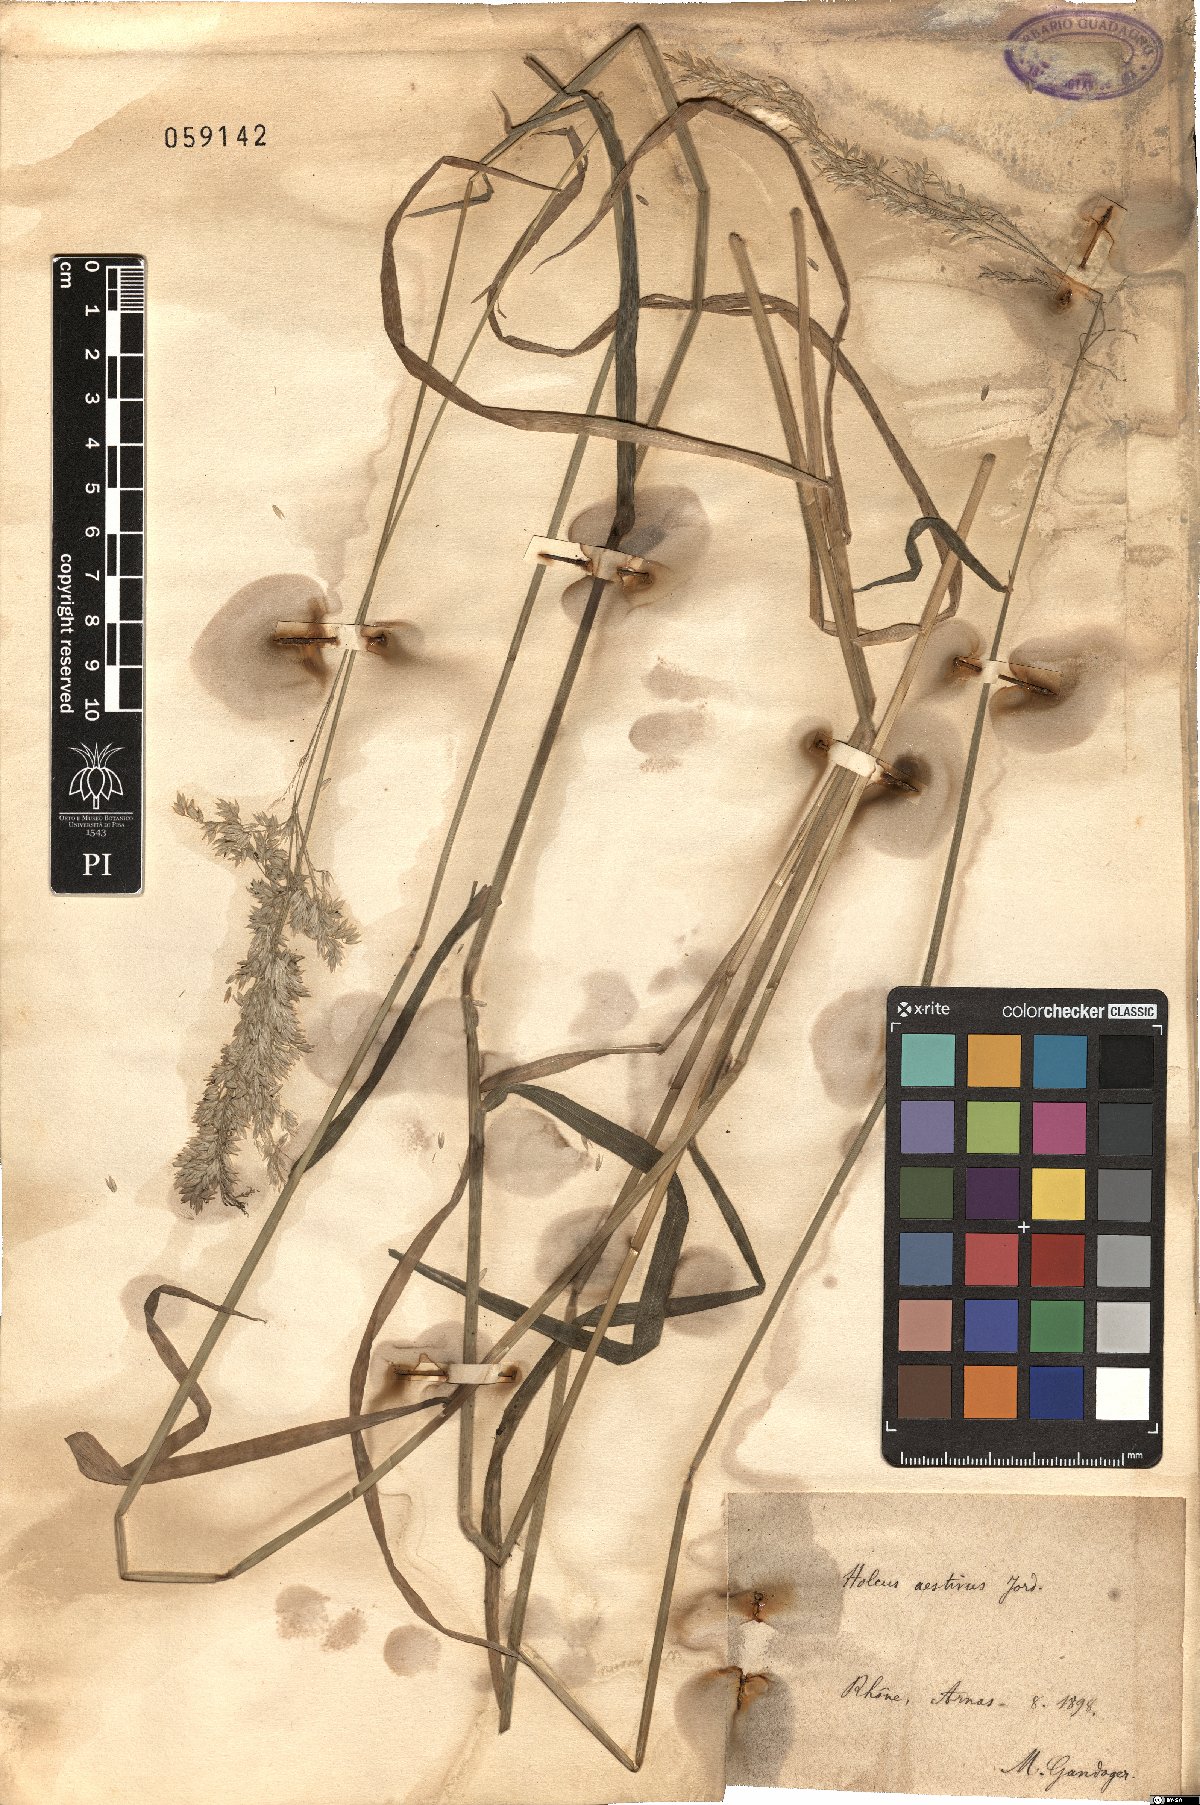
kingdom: Plantae
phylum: Tracheophyta
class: Liliopsida
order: Poales
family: Poaceae
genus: Holcus
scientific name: Holcus
